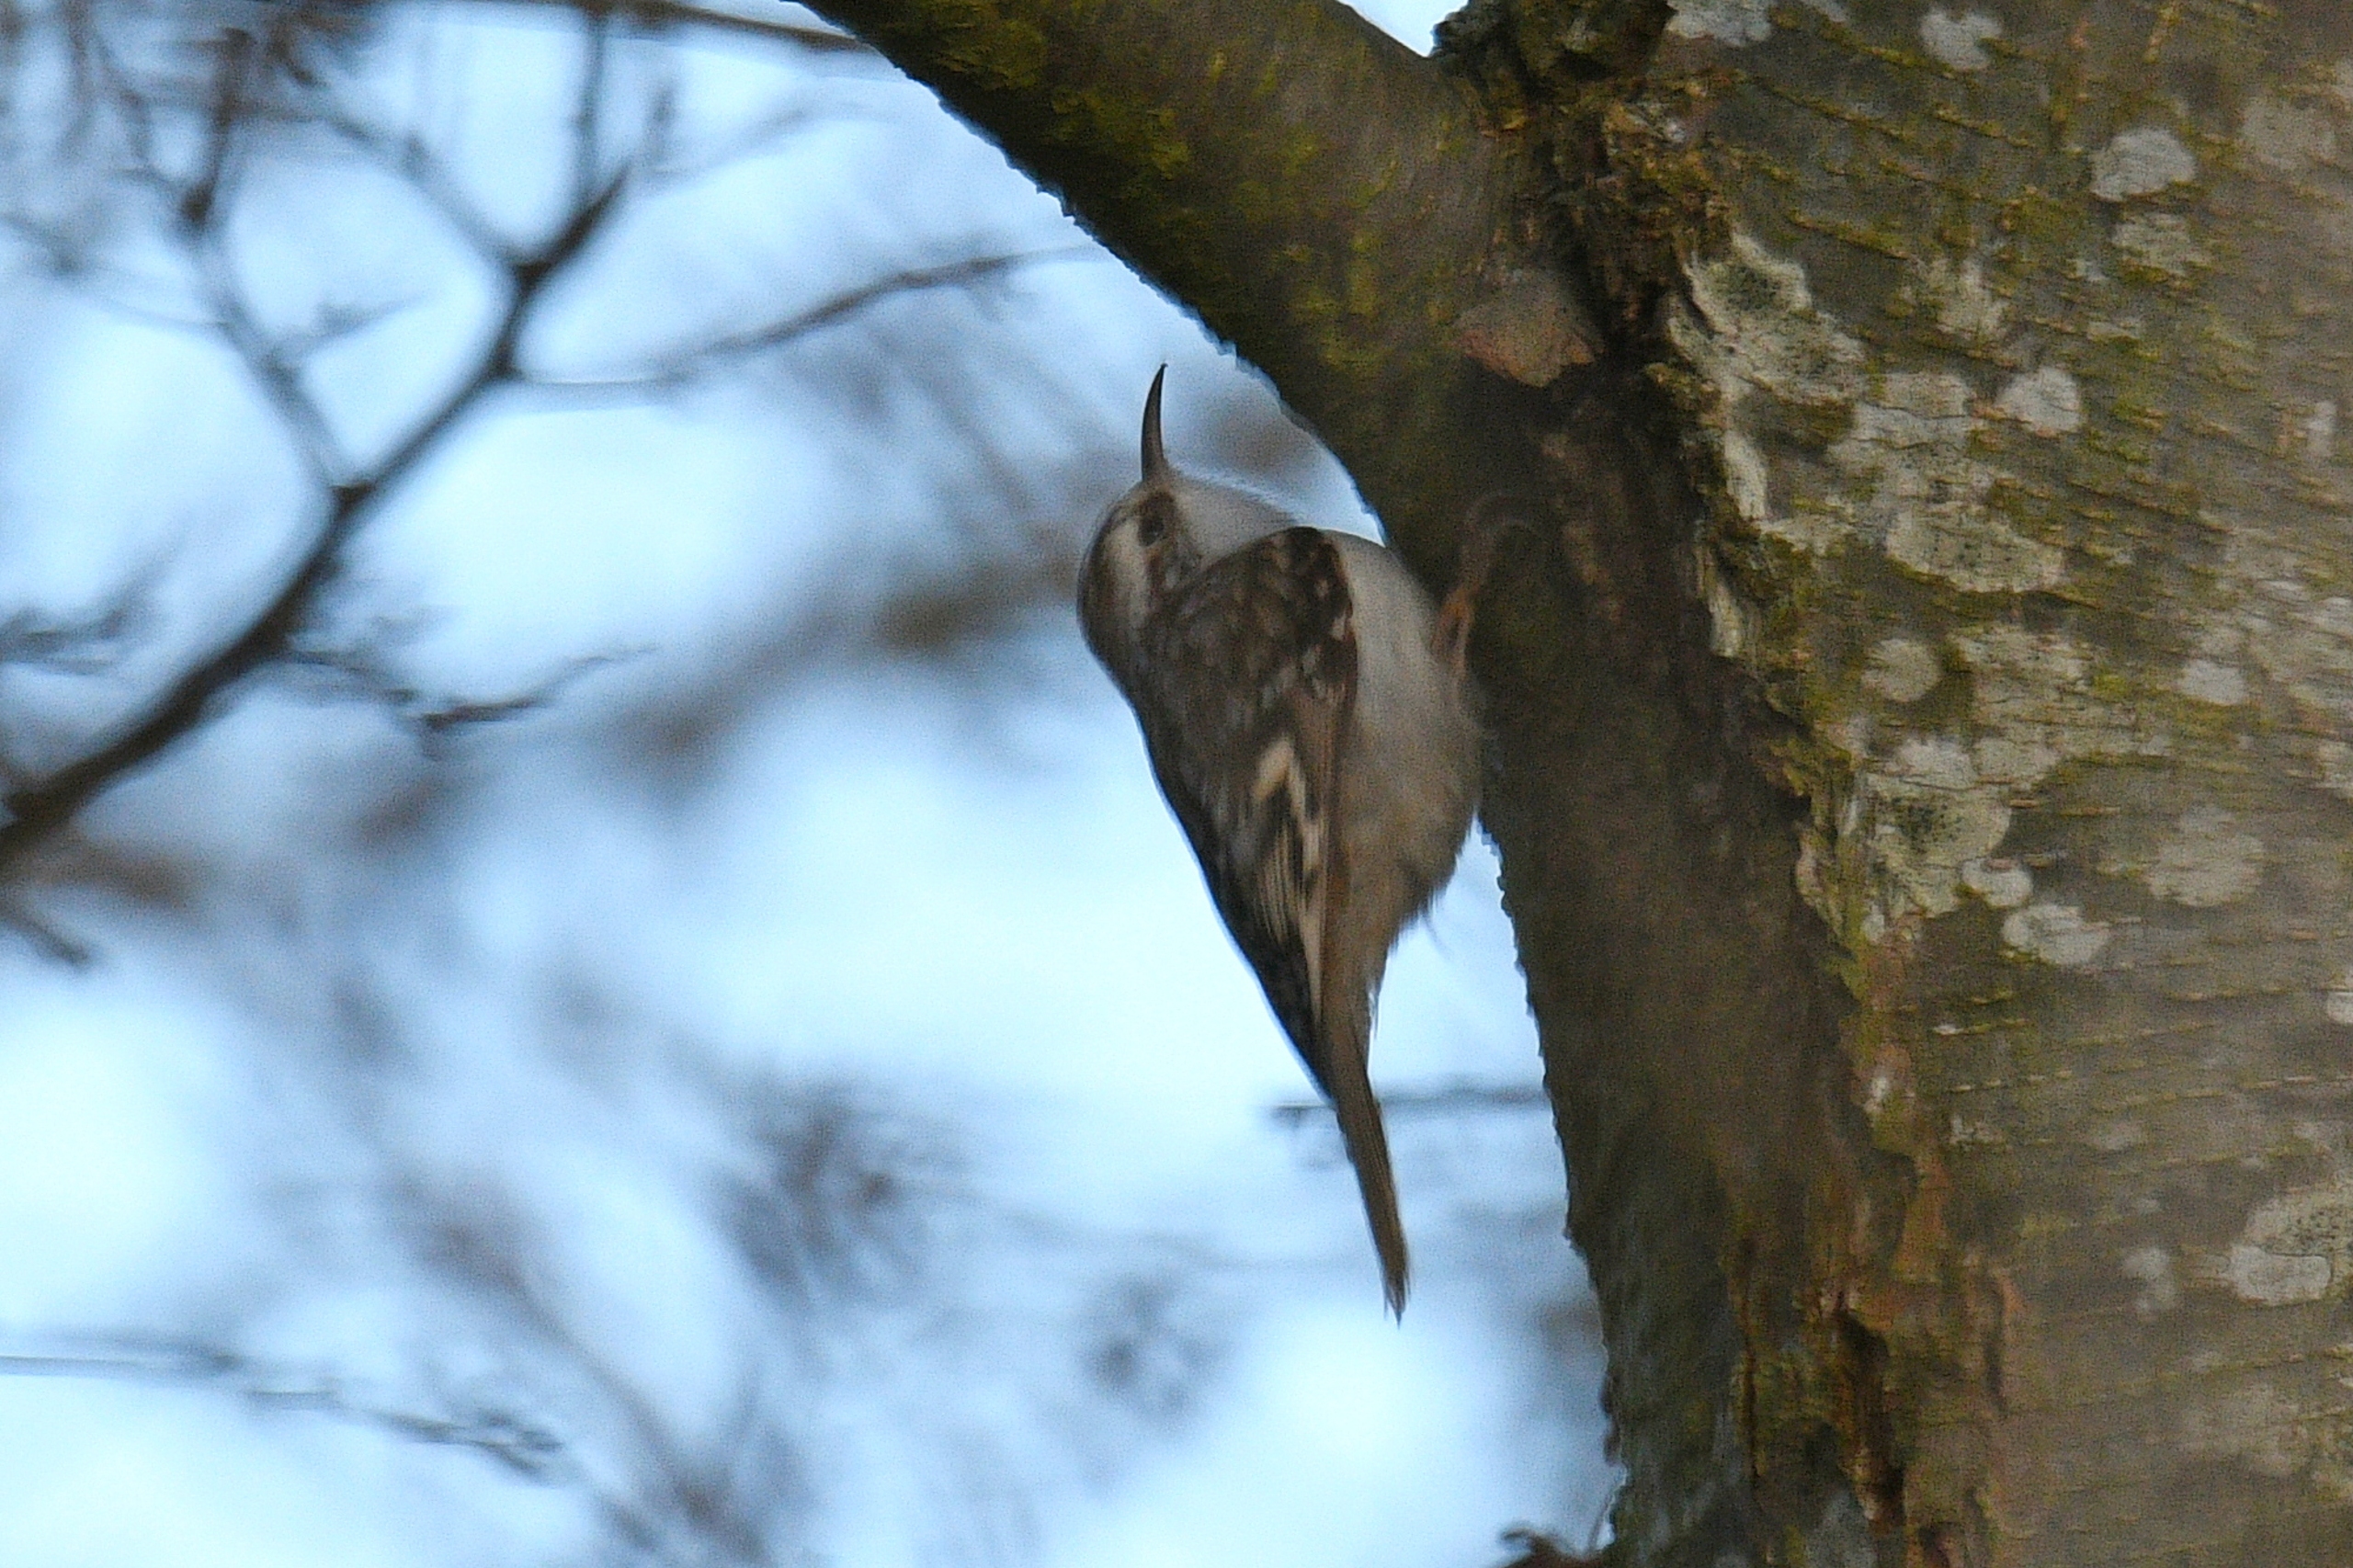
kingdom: Animalia
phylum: Chordata
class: Aves
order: Passeriformes
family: Certhiidae
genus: Certhia
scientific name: Certhia familiaris
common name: Træløber
